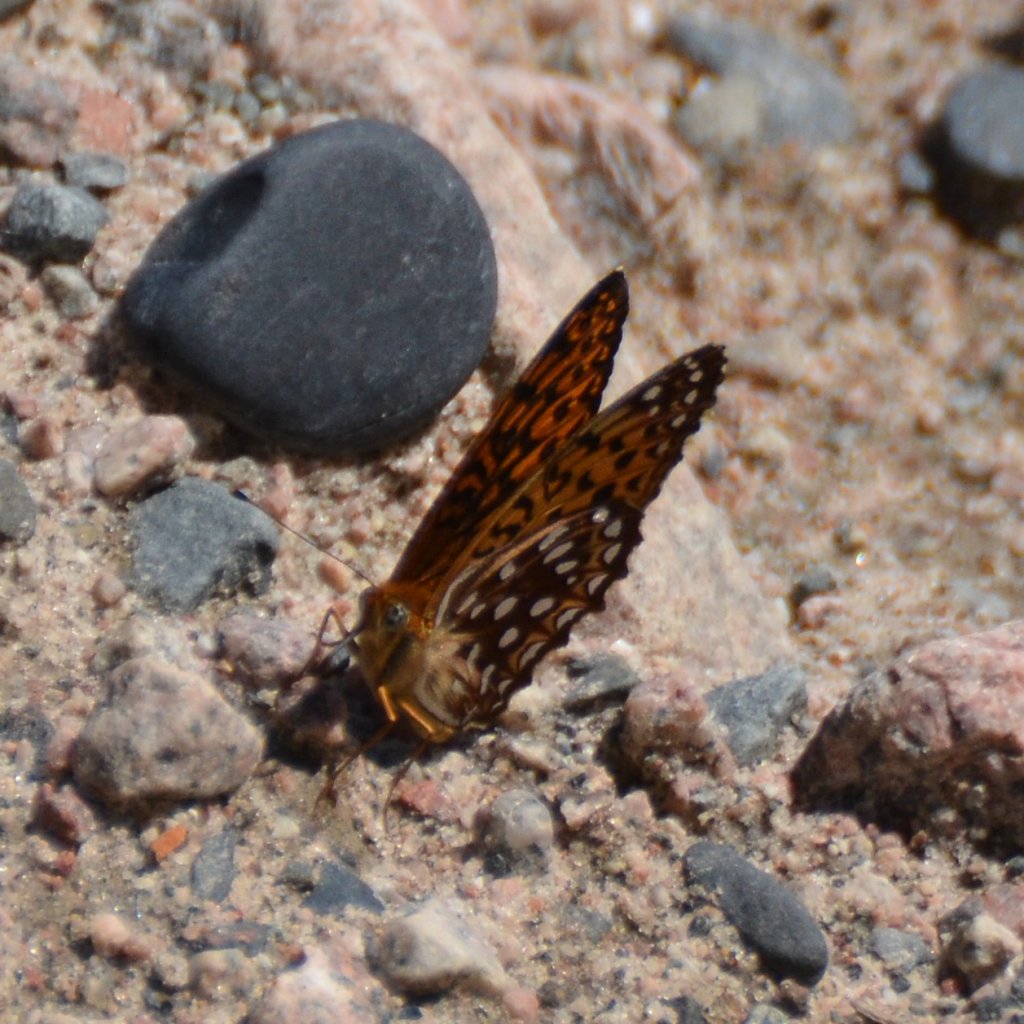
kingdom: Animalia
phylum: Arthropoda
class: Insecta
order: Lepidoptera
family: Nymphalidae
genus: Speyeria
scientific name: Speyeria atlantis
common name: Atlantis Fritillary
